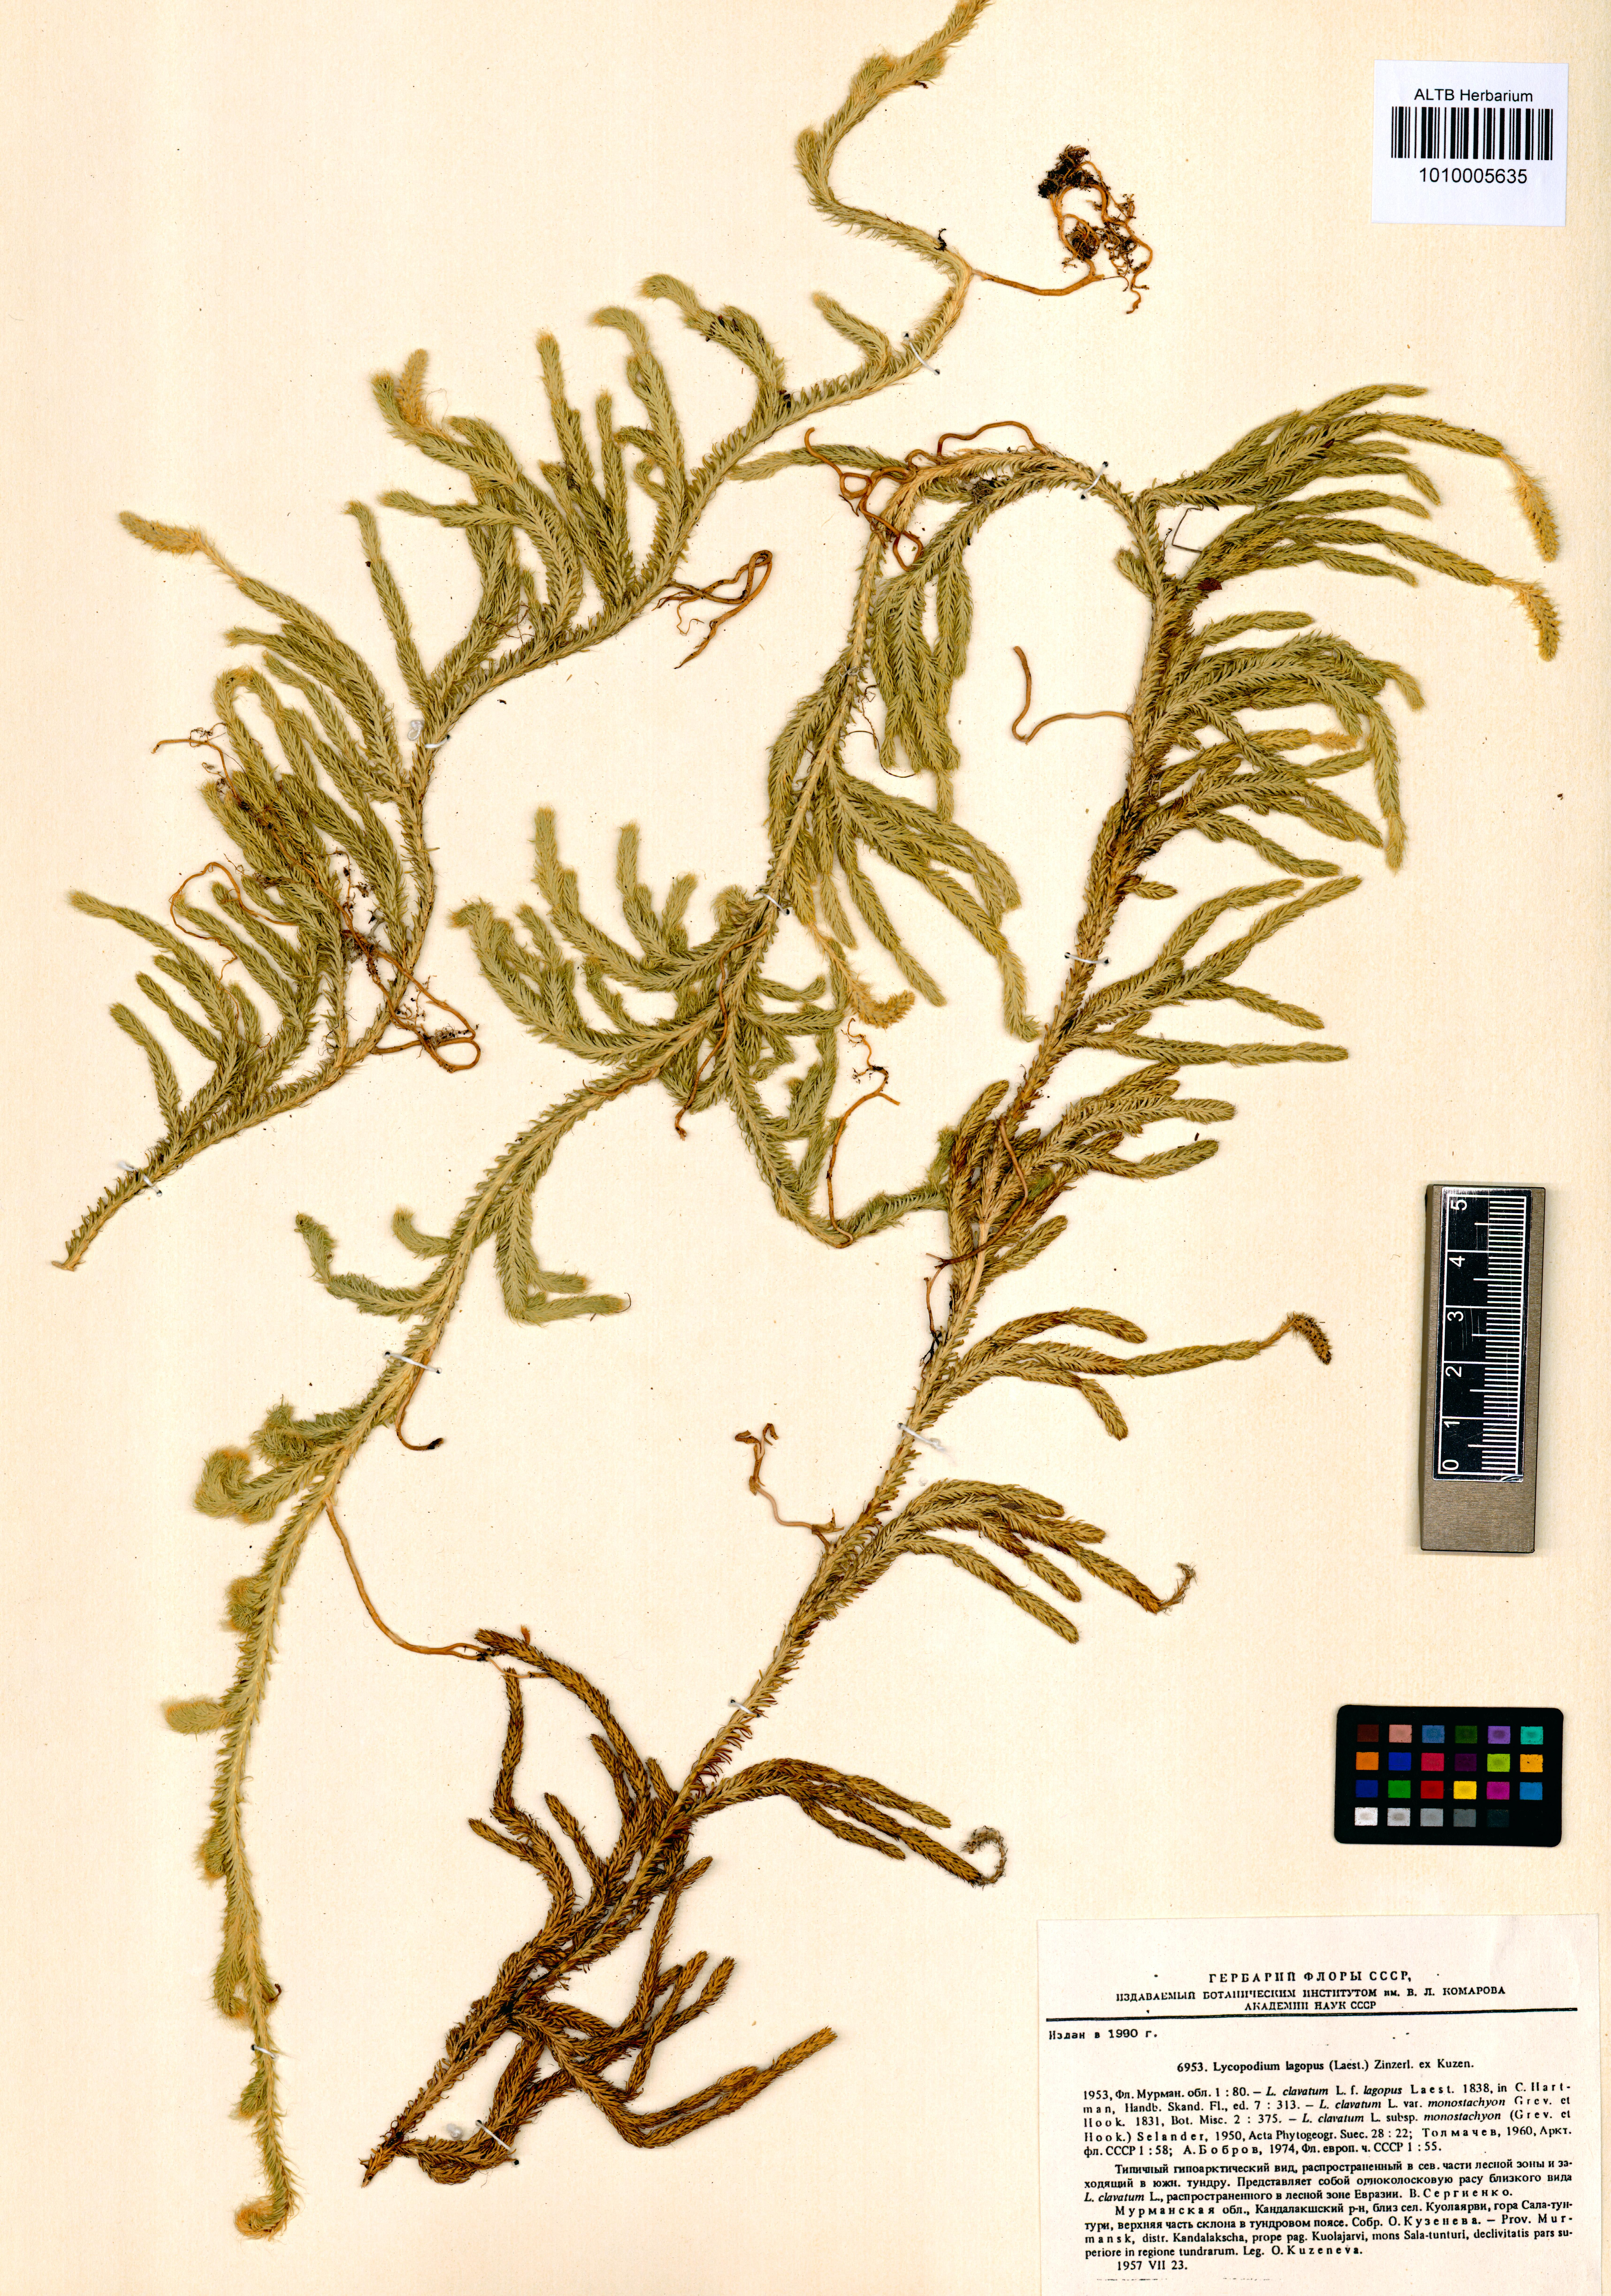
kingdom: Plantae
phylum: Tracheophyta
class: Lycopodiopsida
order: Lycopodiales
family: Lycopodiaceae
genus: Lycopodium
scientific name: Lycopodium lagopus
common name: One-cone clubmoss
